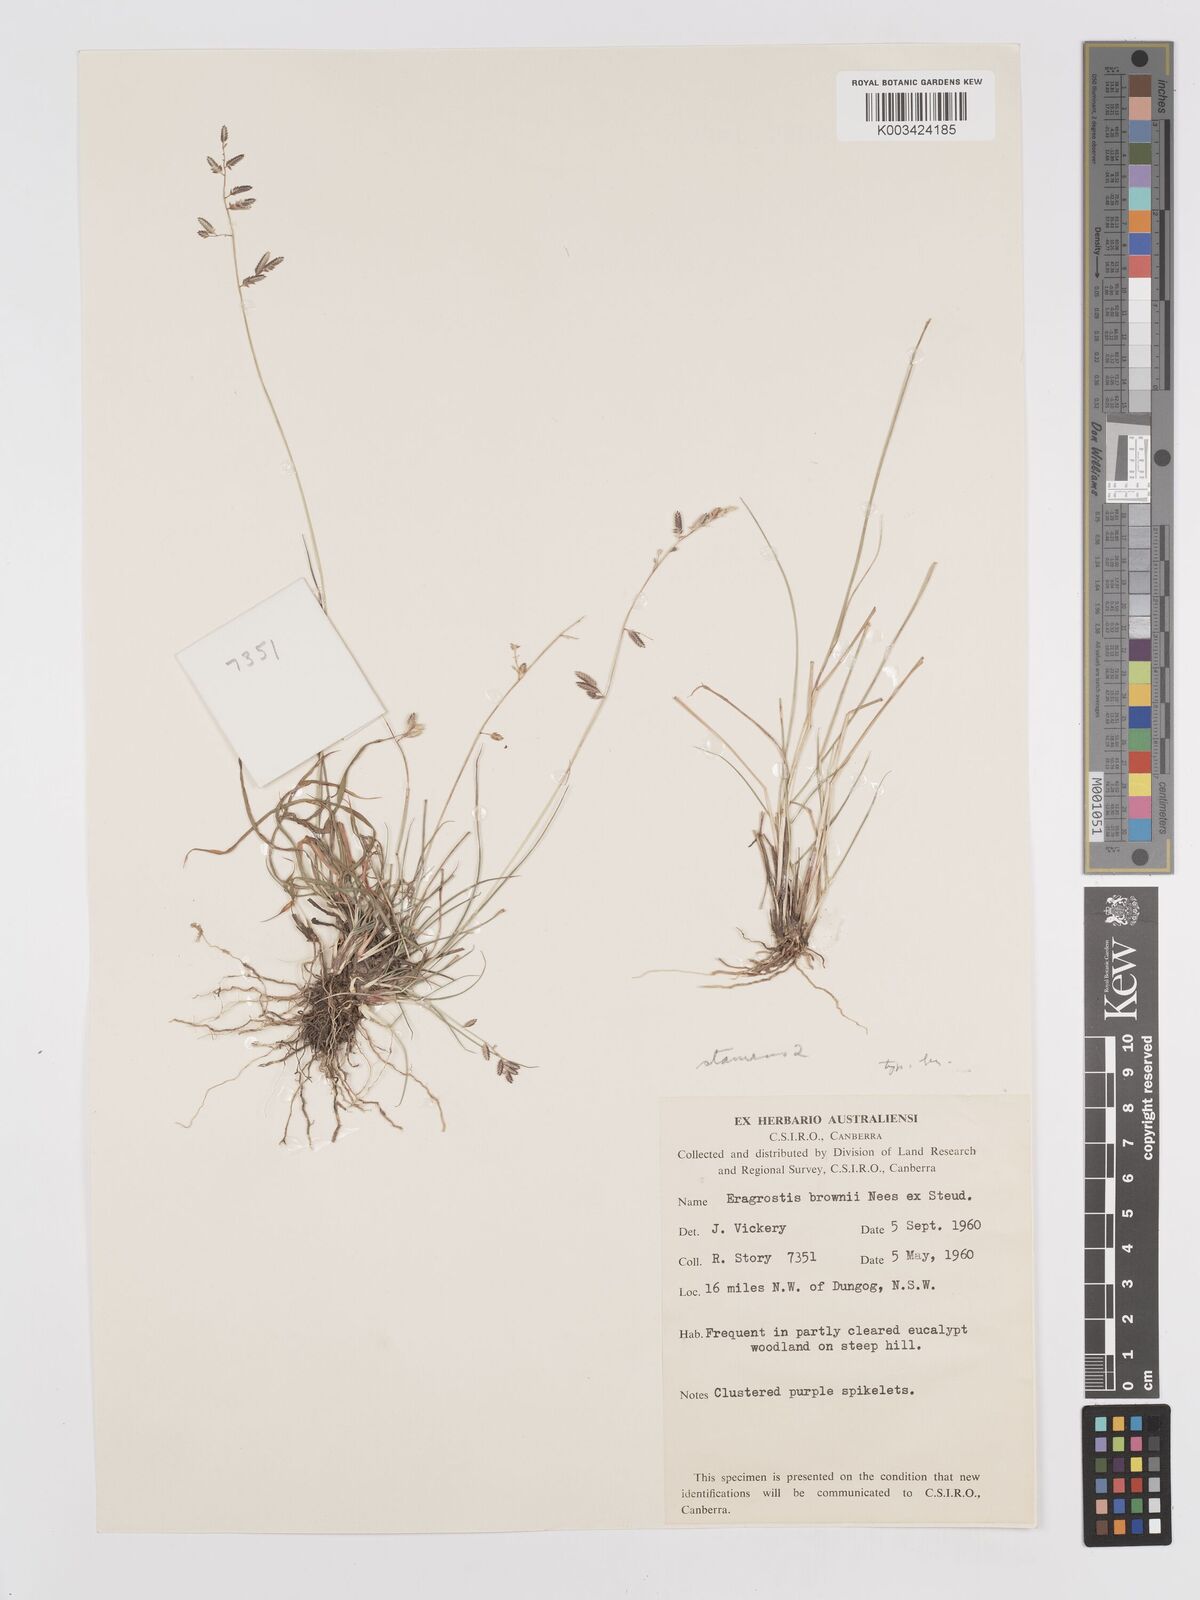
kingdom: Plantae
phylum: Tracheophyta
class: Liliopsida
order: Poales
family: Poaceae
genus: Eragrostis
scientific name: Eragrostis brownii
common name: Lovegrass
